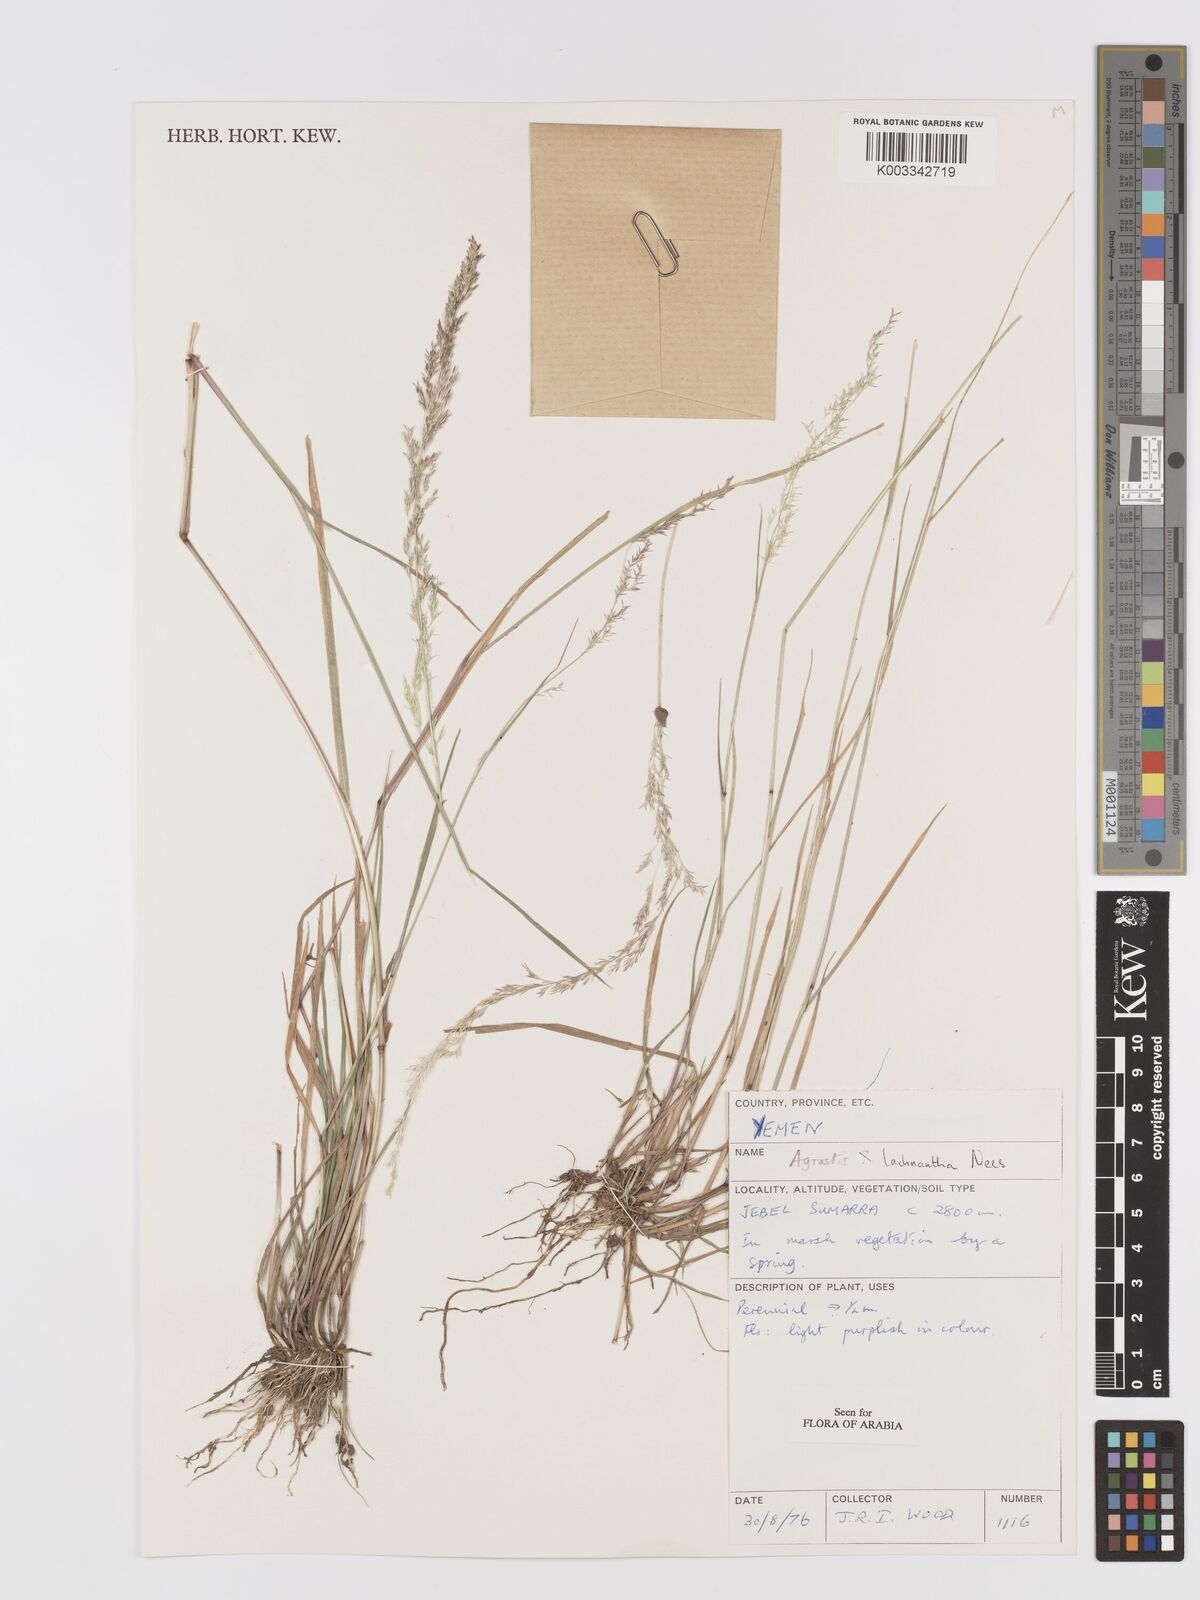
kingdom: Plantae
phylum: Tracheophyta
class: Liliopsida
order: Poales
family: Poaceae
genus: Lachnagrostis
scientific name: Lachnagrostis lachnantha
